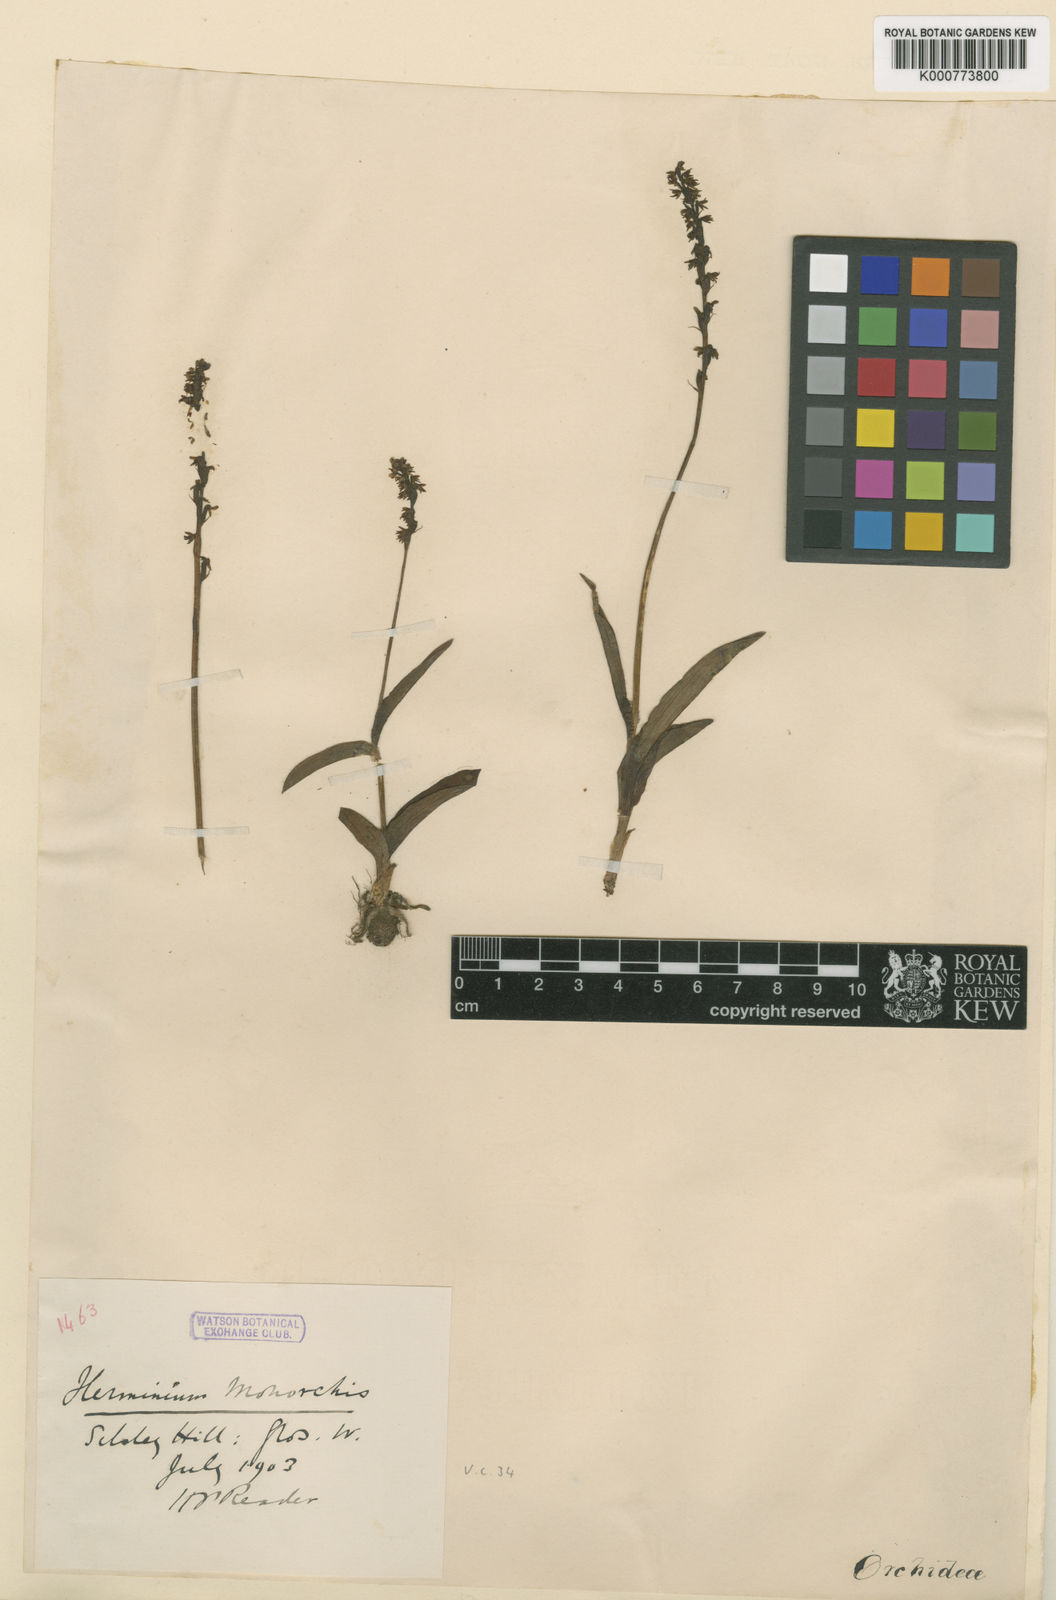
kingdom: Plantae
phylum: Tracheophyta
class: Liliopsida
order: Asparagales
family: Orchidaceae
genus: Herminium
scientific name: Herminium monorchis
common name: Musk orchid
